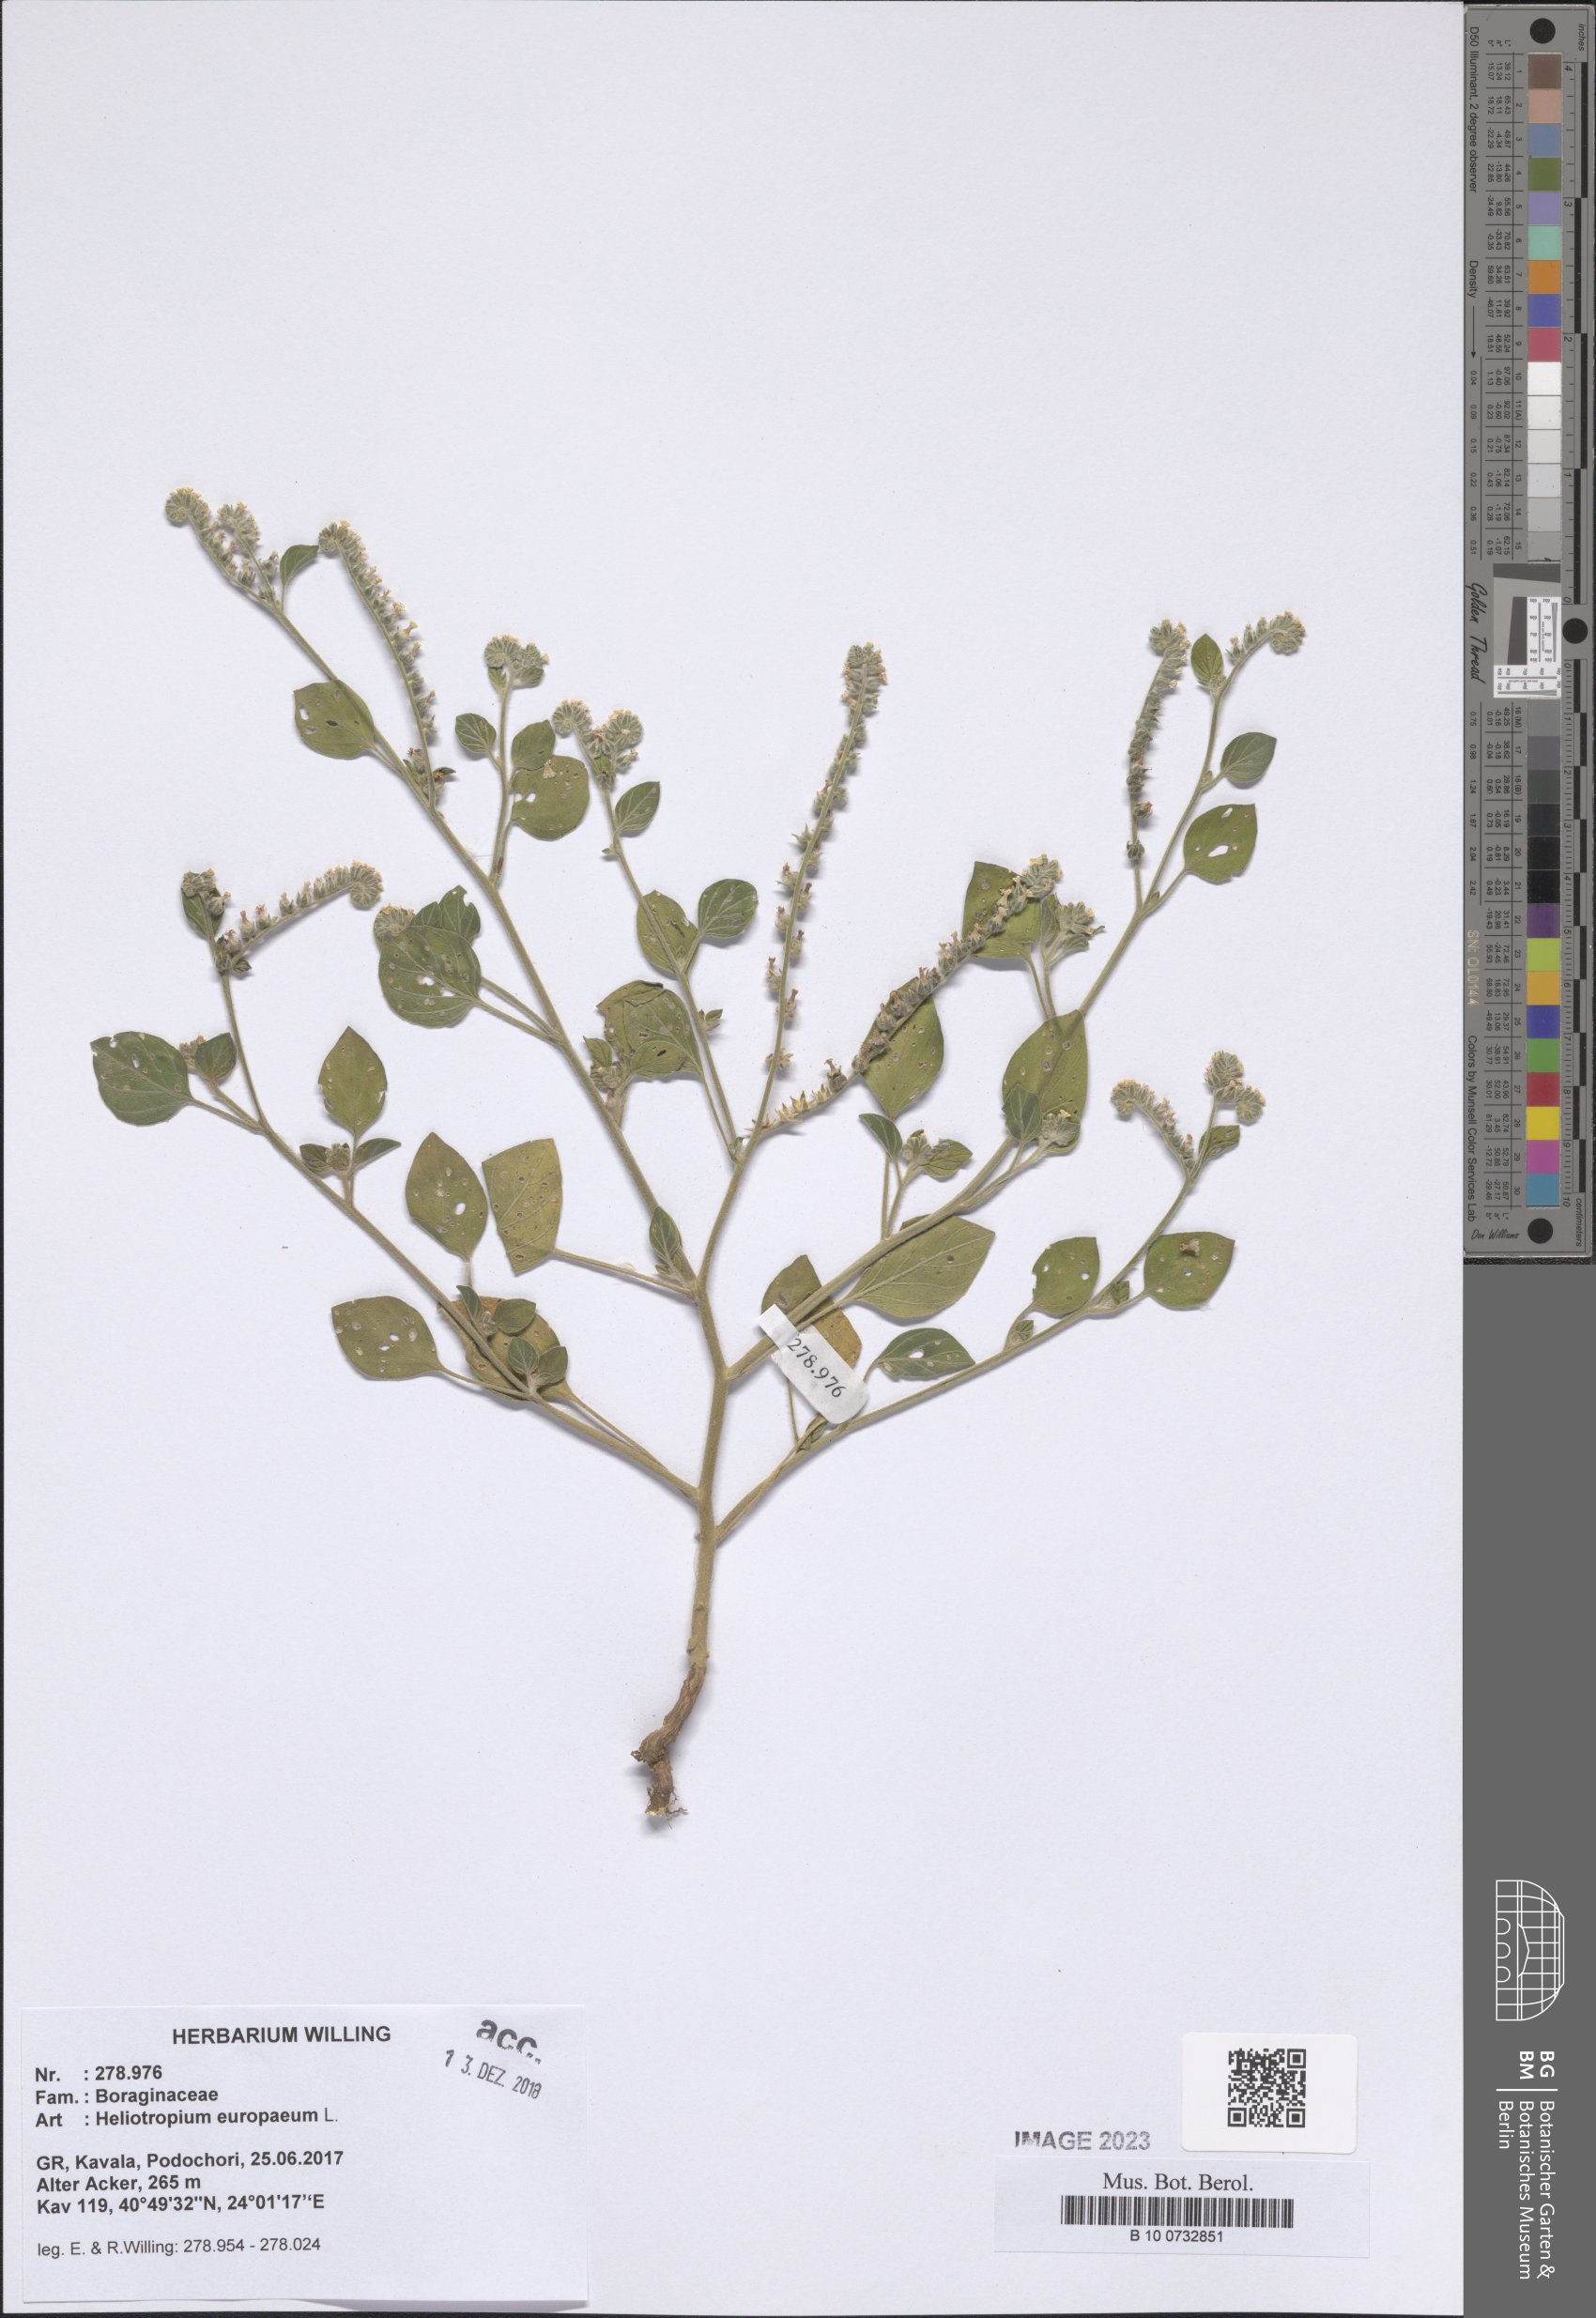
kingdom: Plantae
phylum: Tracheophyta
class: Magnoliopsida
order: Boraginales
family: Heliotropiaceae
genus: Heliotropium
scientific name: Heliotropium europaeum
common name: European heliotrope
